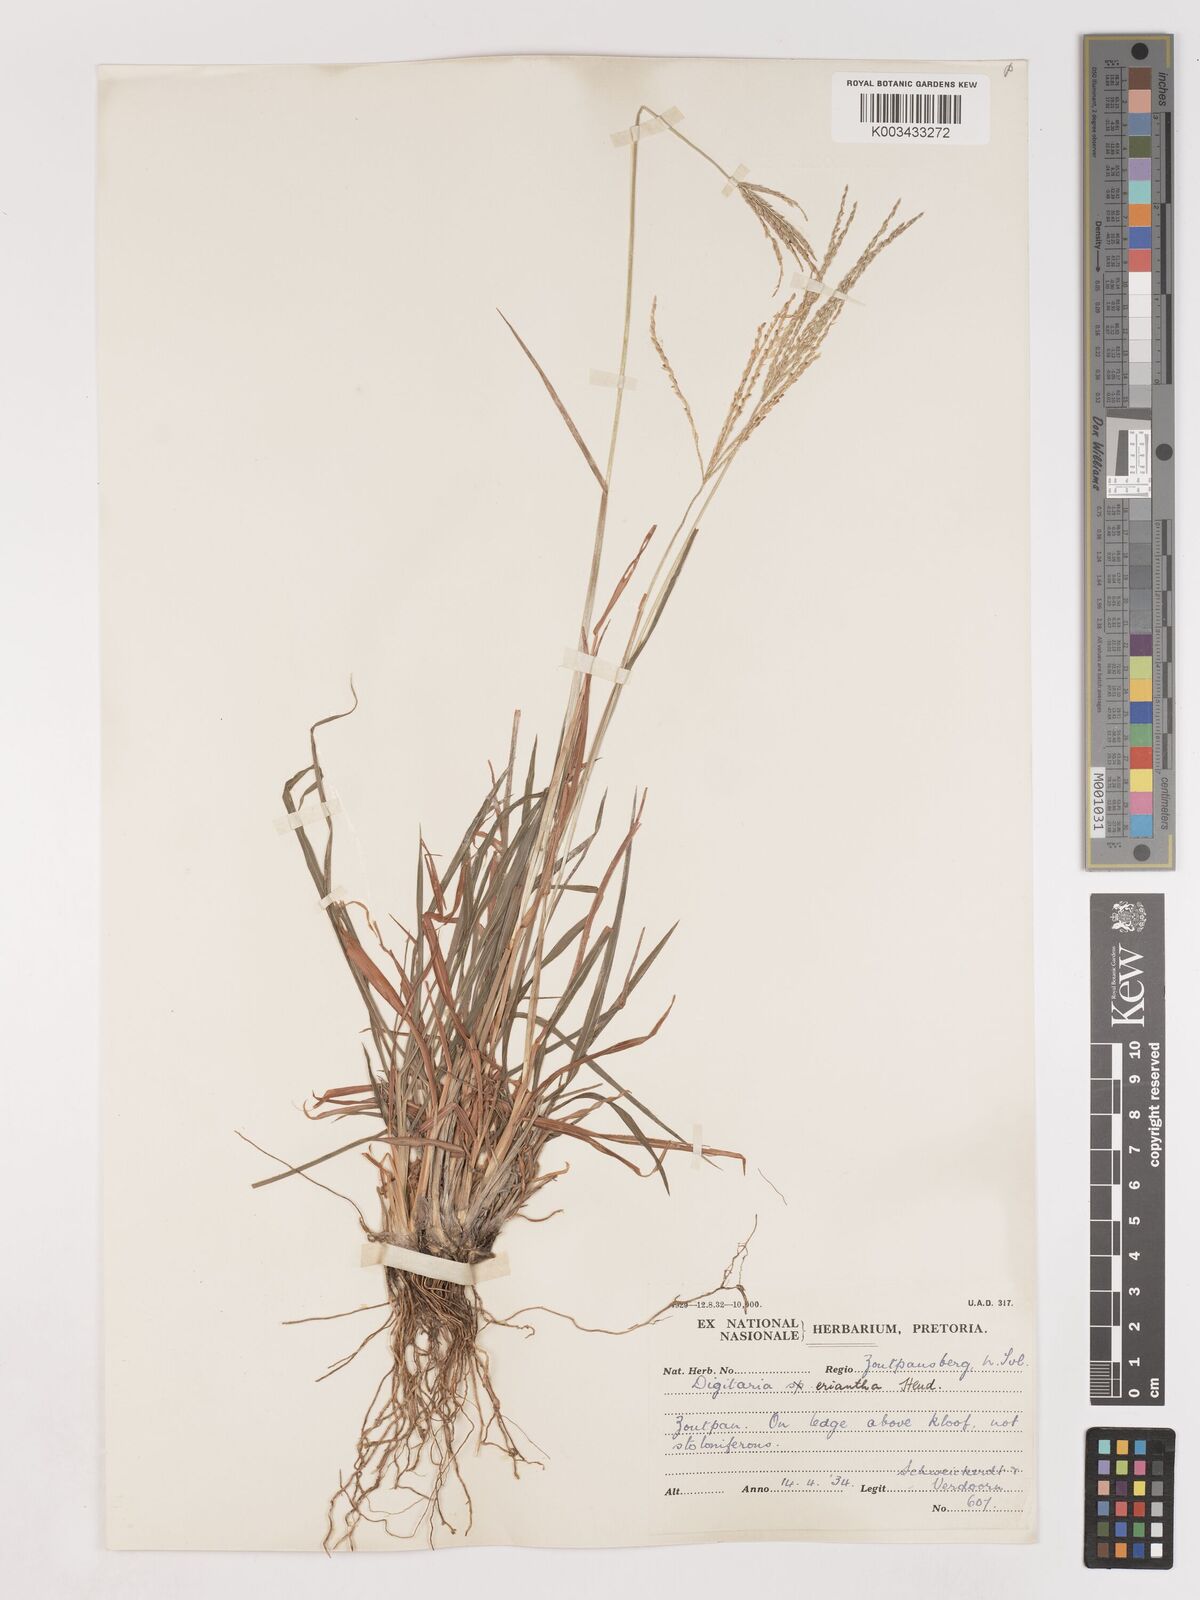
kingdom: Plantae
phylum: Tracheophyta
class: Liliopsida
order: Poales
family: Poaceae
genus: Digitaria
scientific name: Digitaria eriantha
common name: Digitgrass
